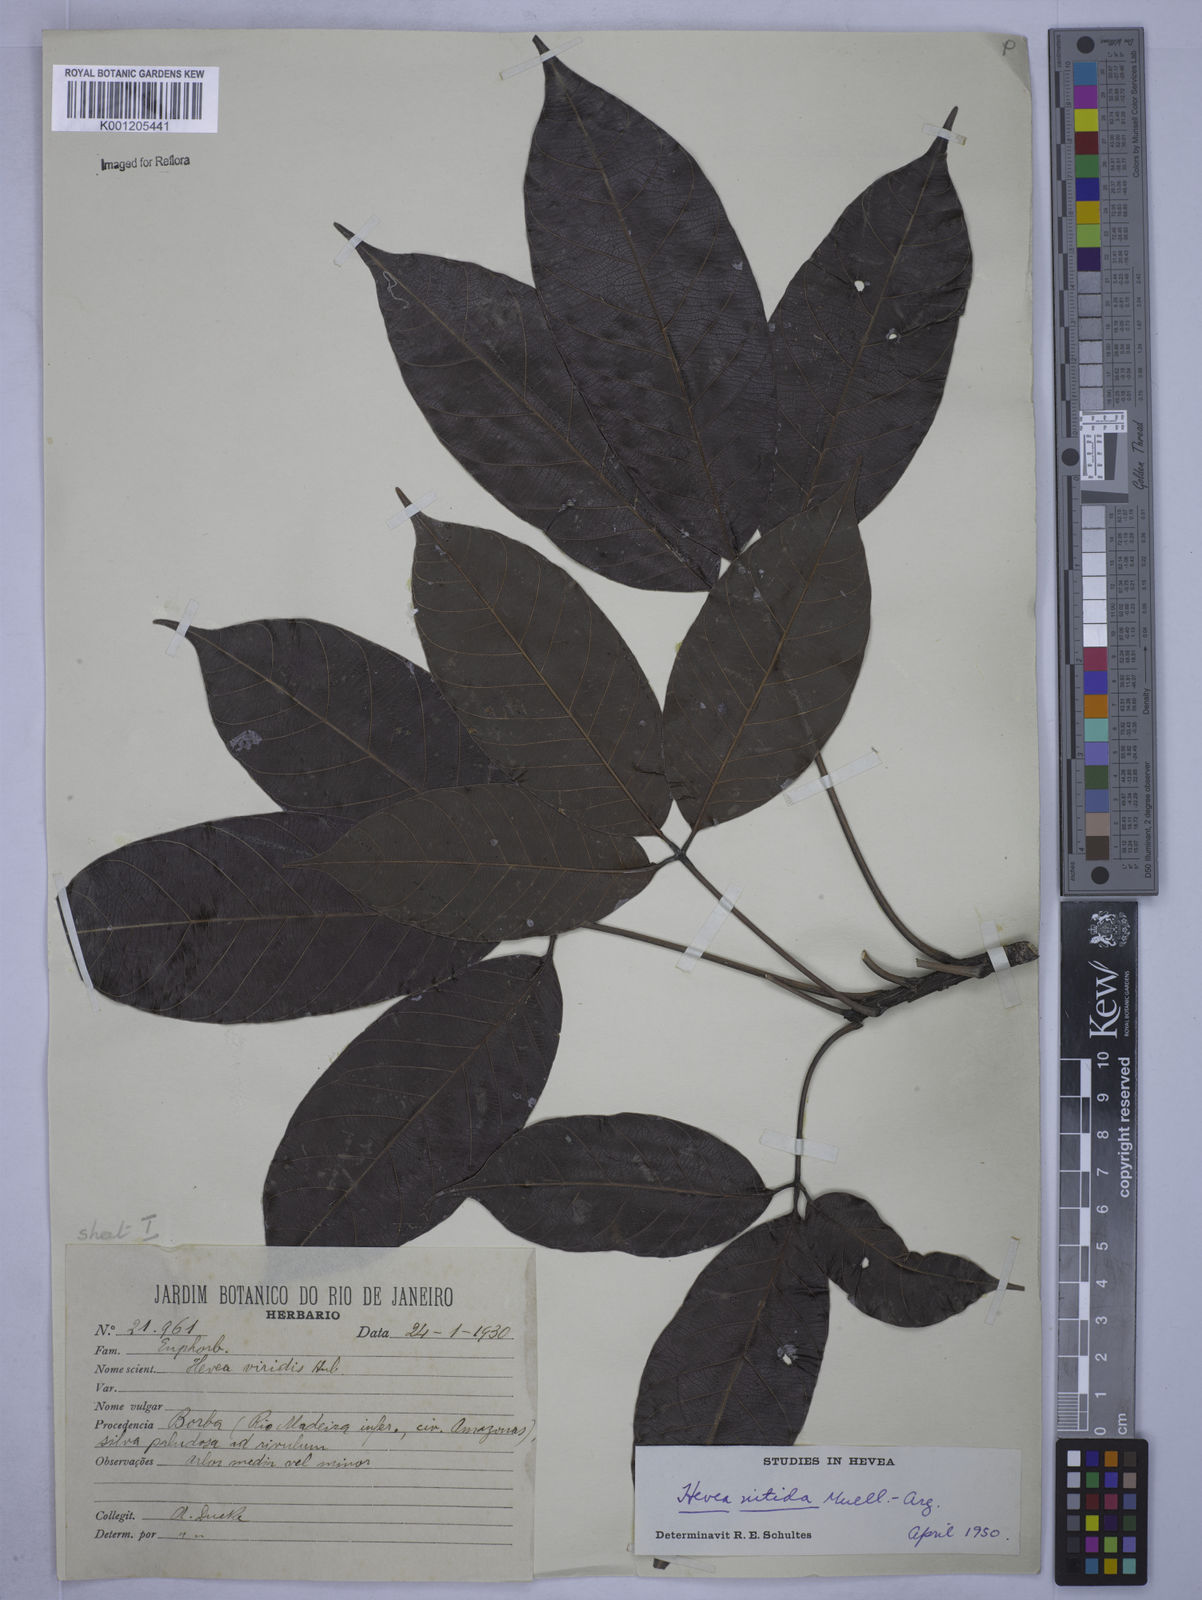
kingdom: Plantae
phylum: Tracheophyta
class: Magnoliopsida
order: Malpighiales
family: Euphorbiaceae
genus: Hevea
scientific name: Hevea
